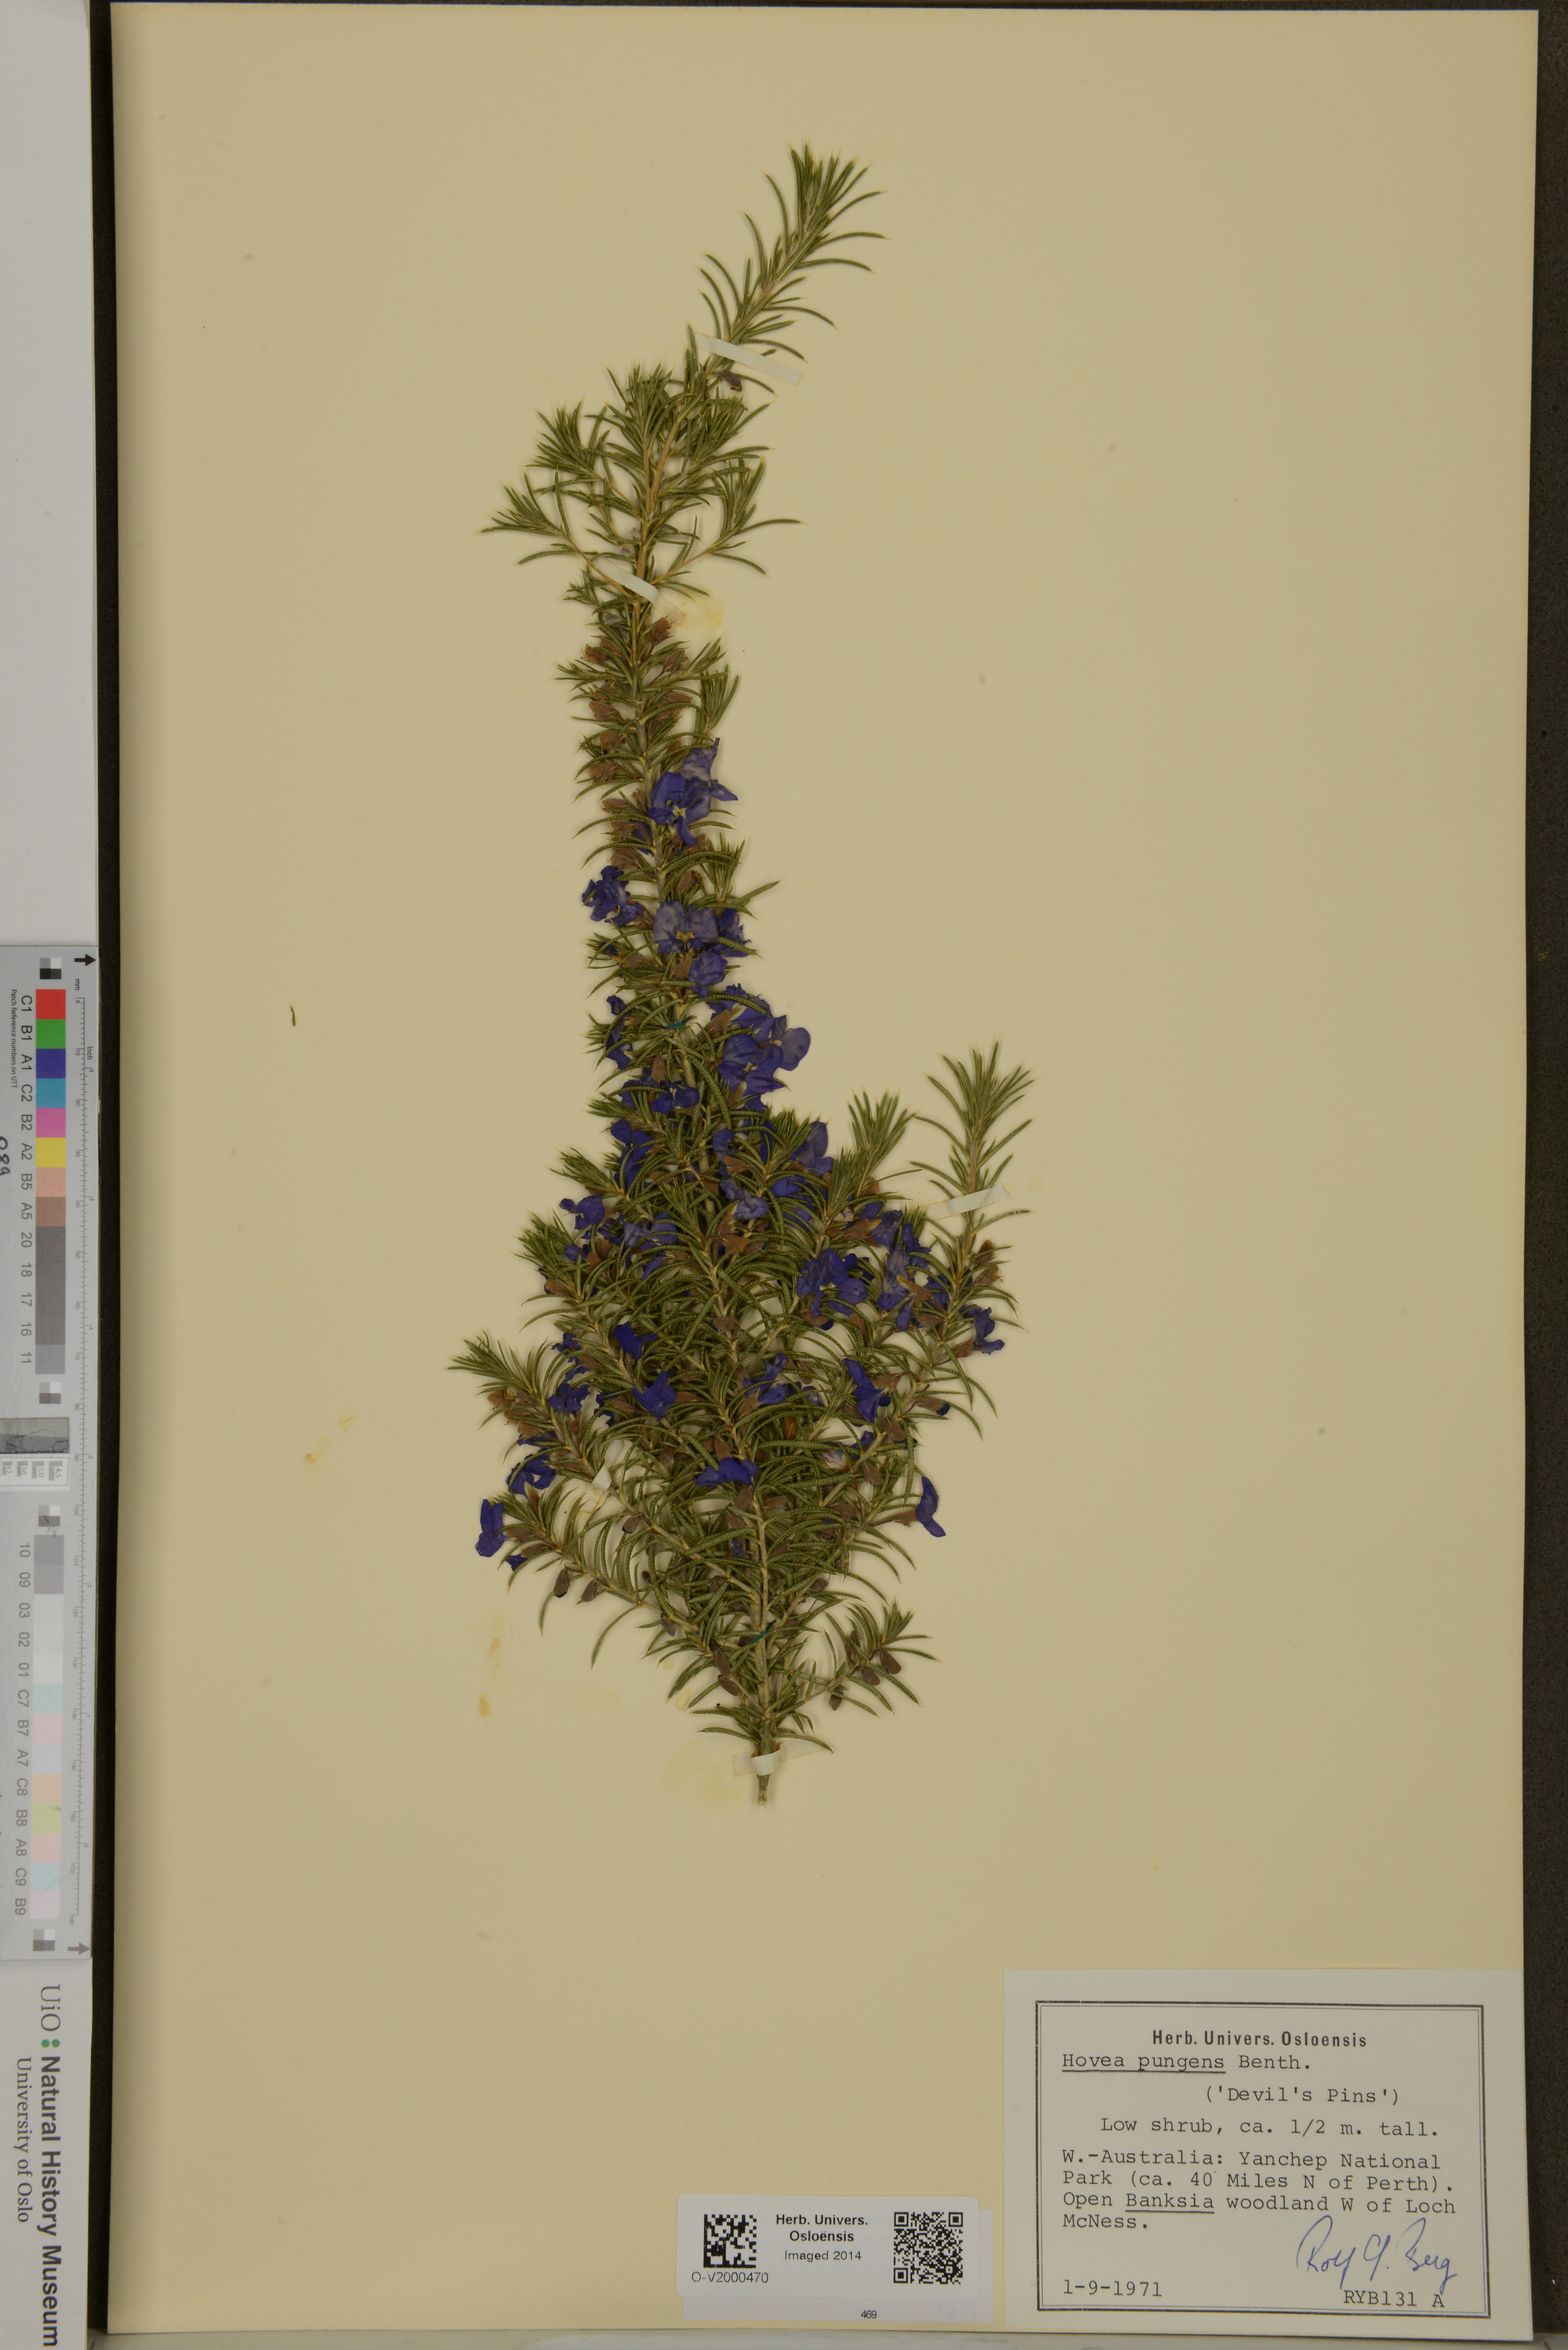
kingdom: Plantae
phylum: Tracheophyta
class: Magnoliopsida
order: Fabales
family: Fabaceae
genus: Hovea
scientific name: Hovea pungens
